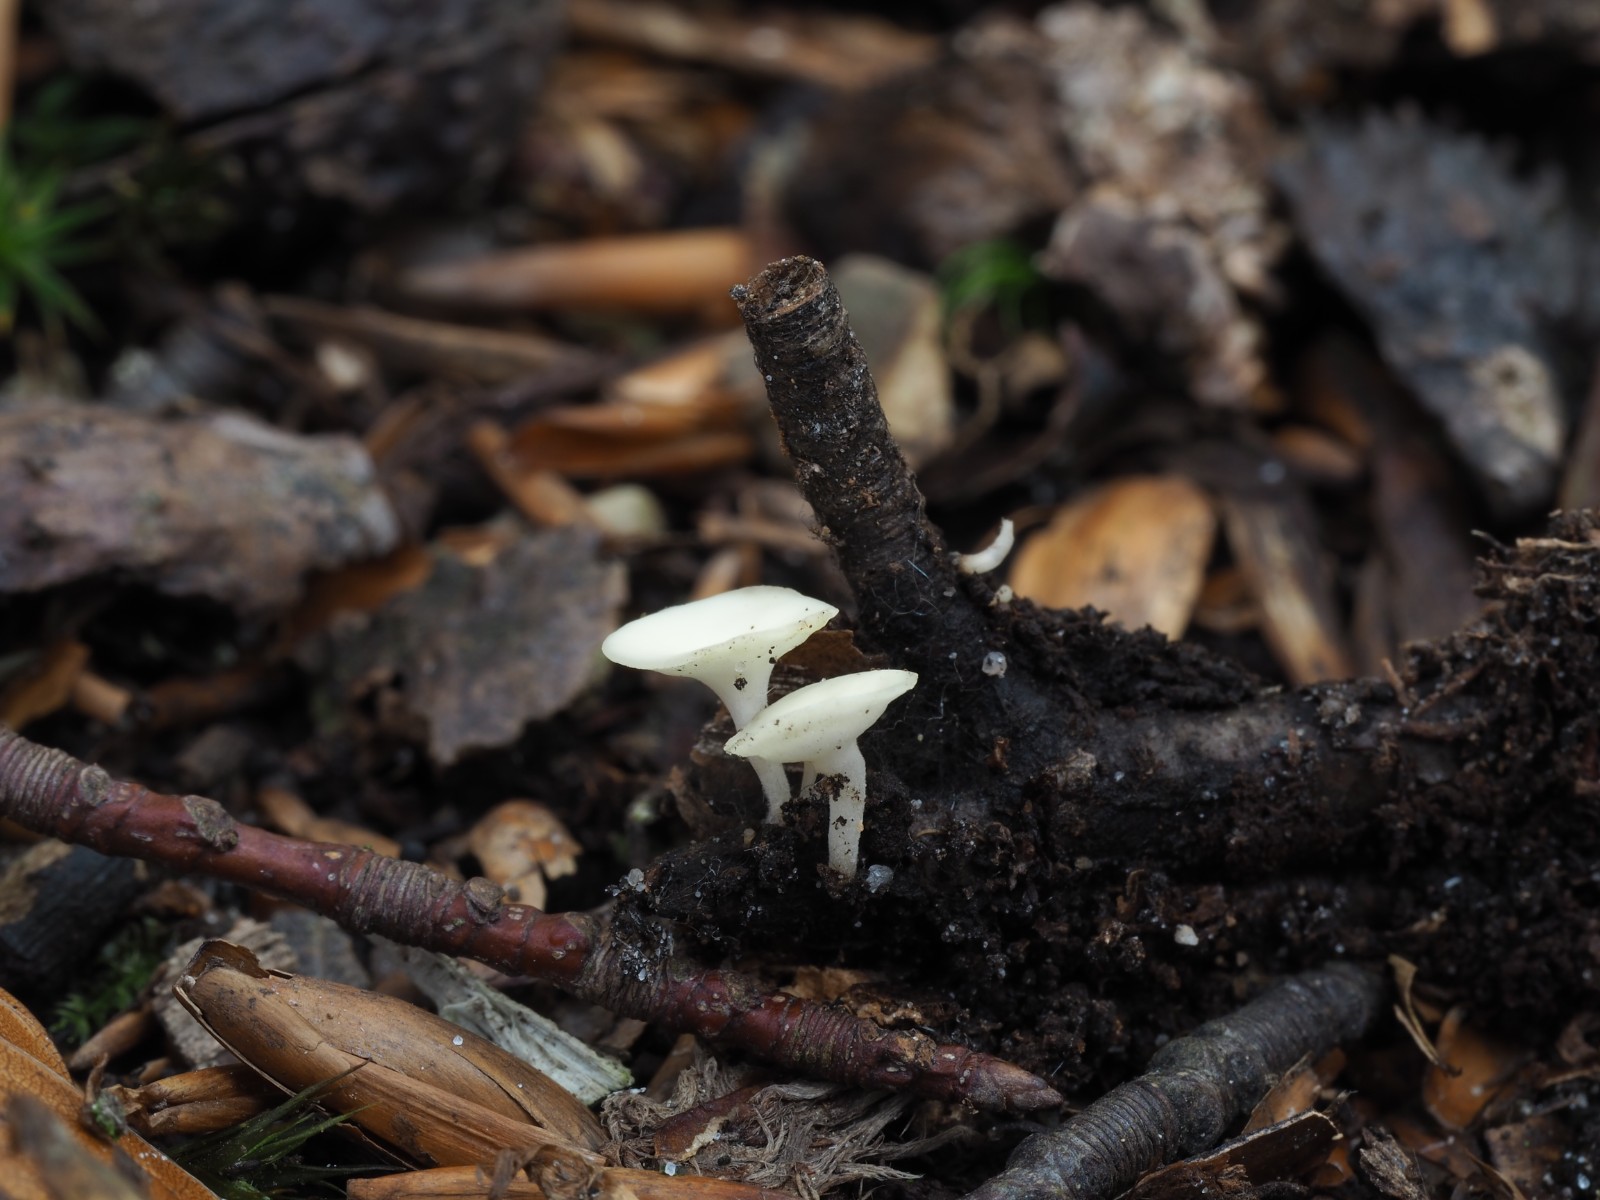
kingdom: Fungi
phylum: Ascomycota
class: Leotiomycetes
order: Helotiales
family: Helotiaceae
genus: Hymenoscyphus
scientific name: Hymenoscyphus serotinus
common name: krumsporet stilkskive
